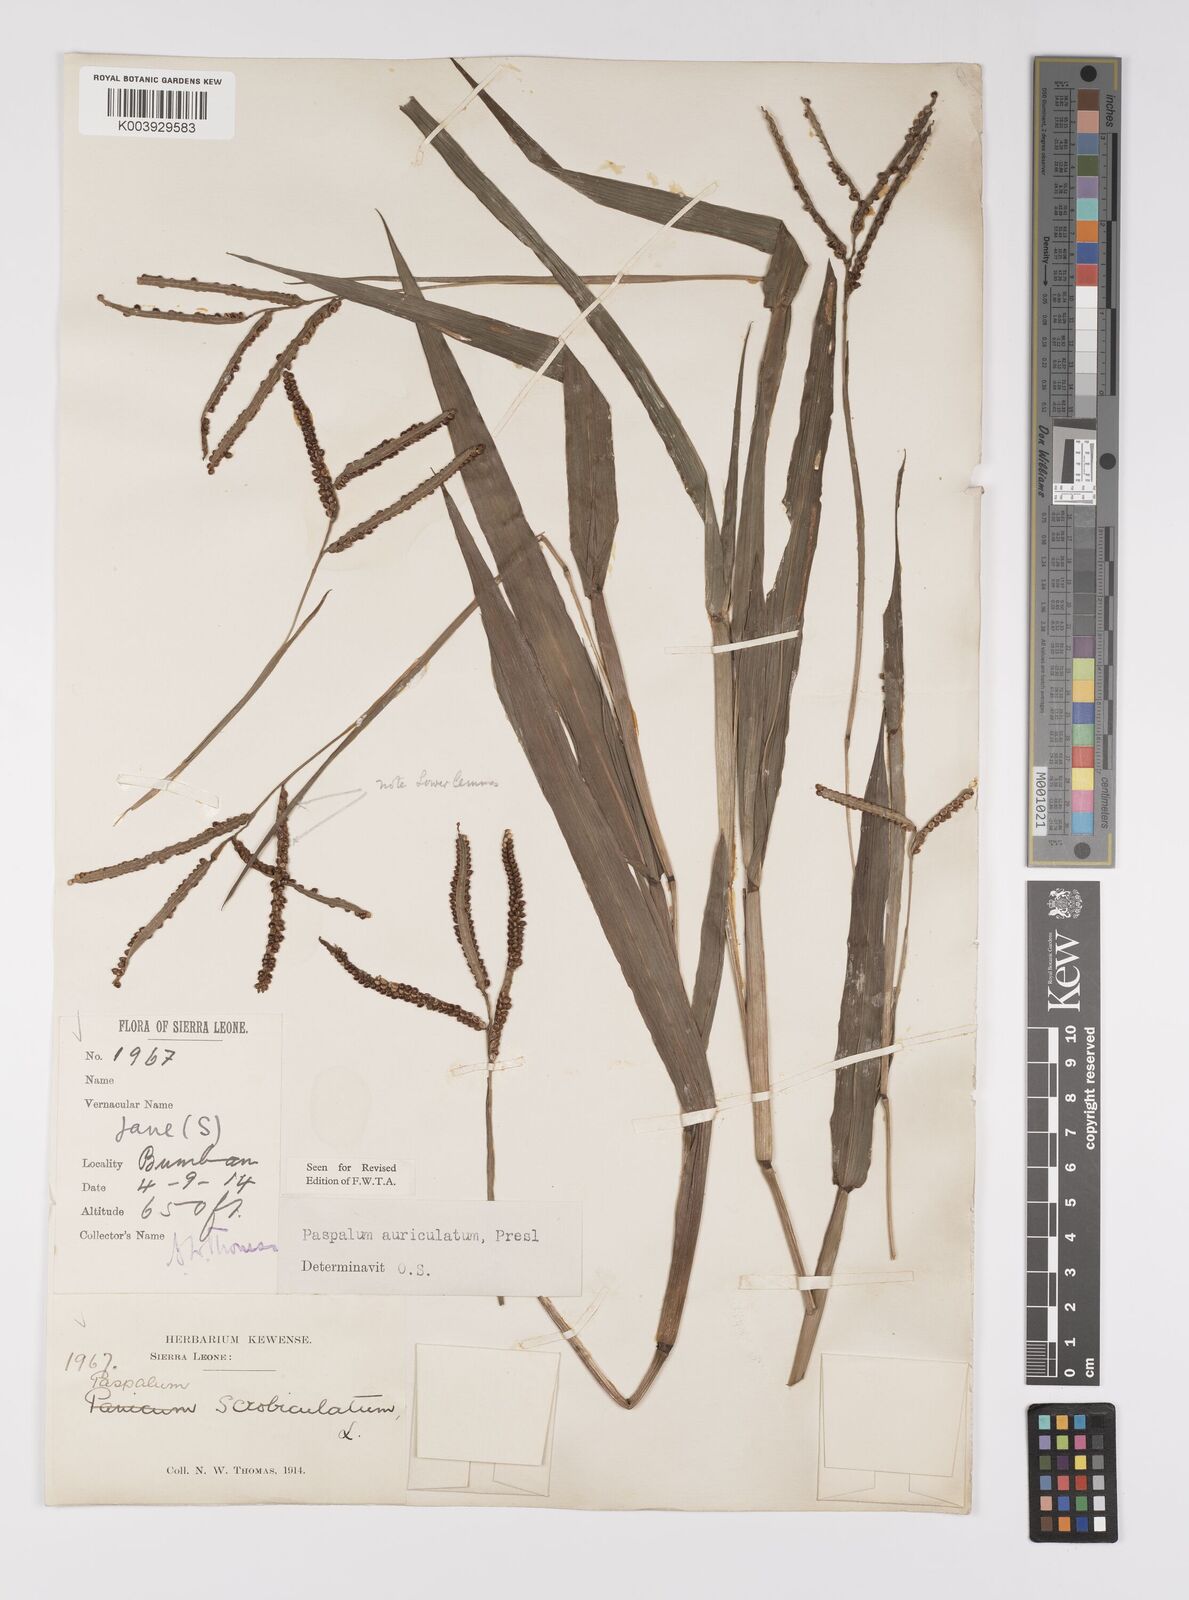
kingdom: Plantae
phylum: Tracheophyta
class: Liliopsida
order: Poales
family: Poaceae
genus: Paspalum
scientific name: Paspalum lamprocaryon
